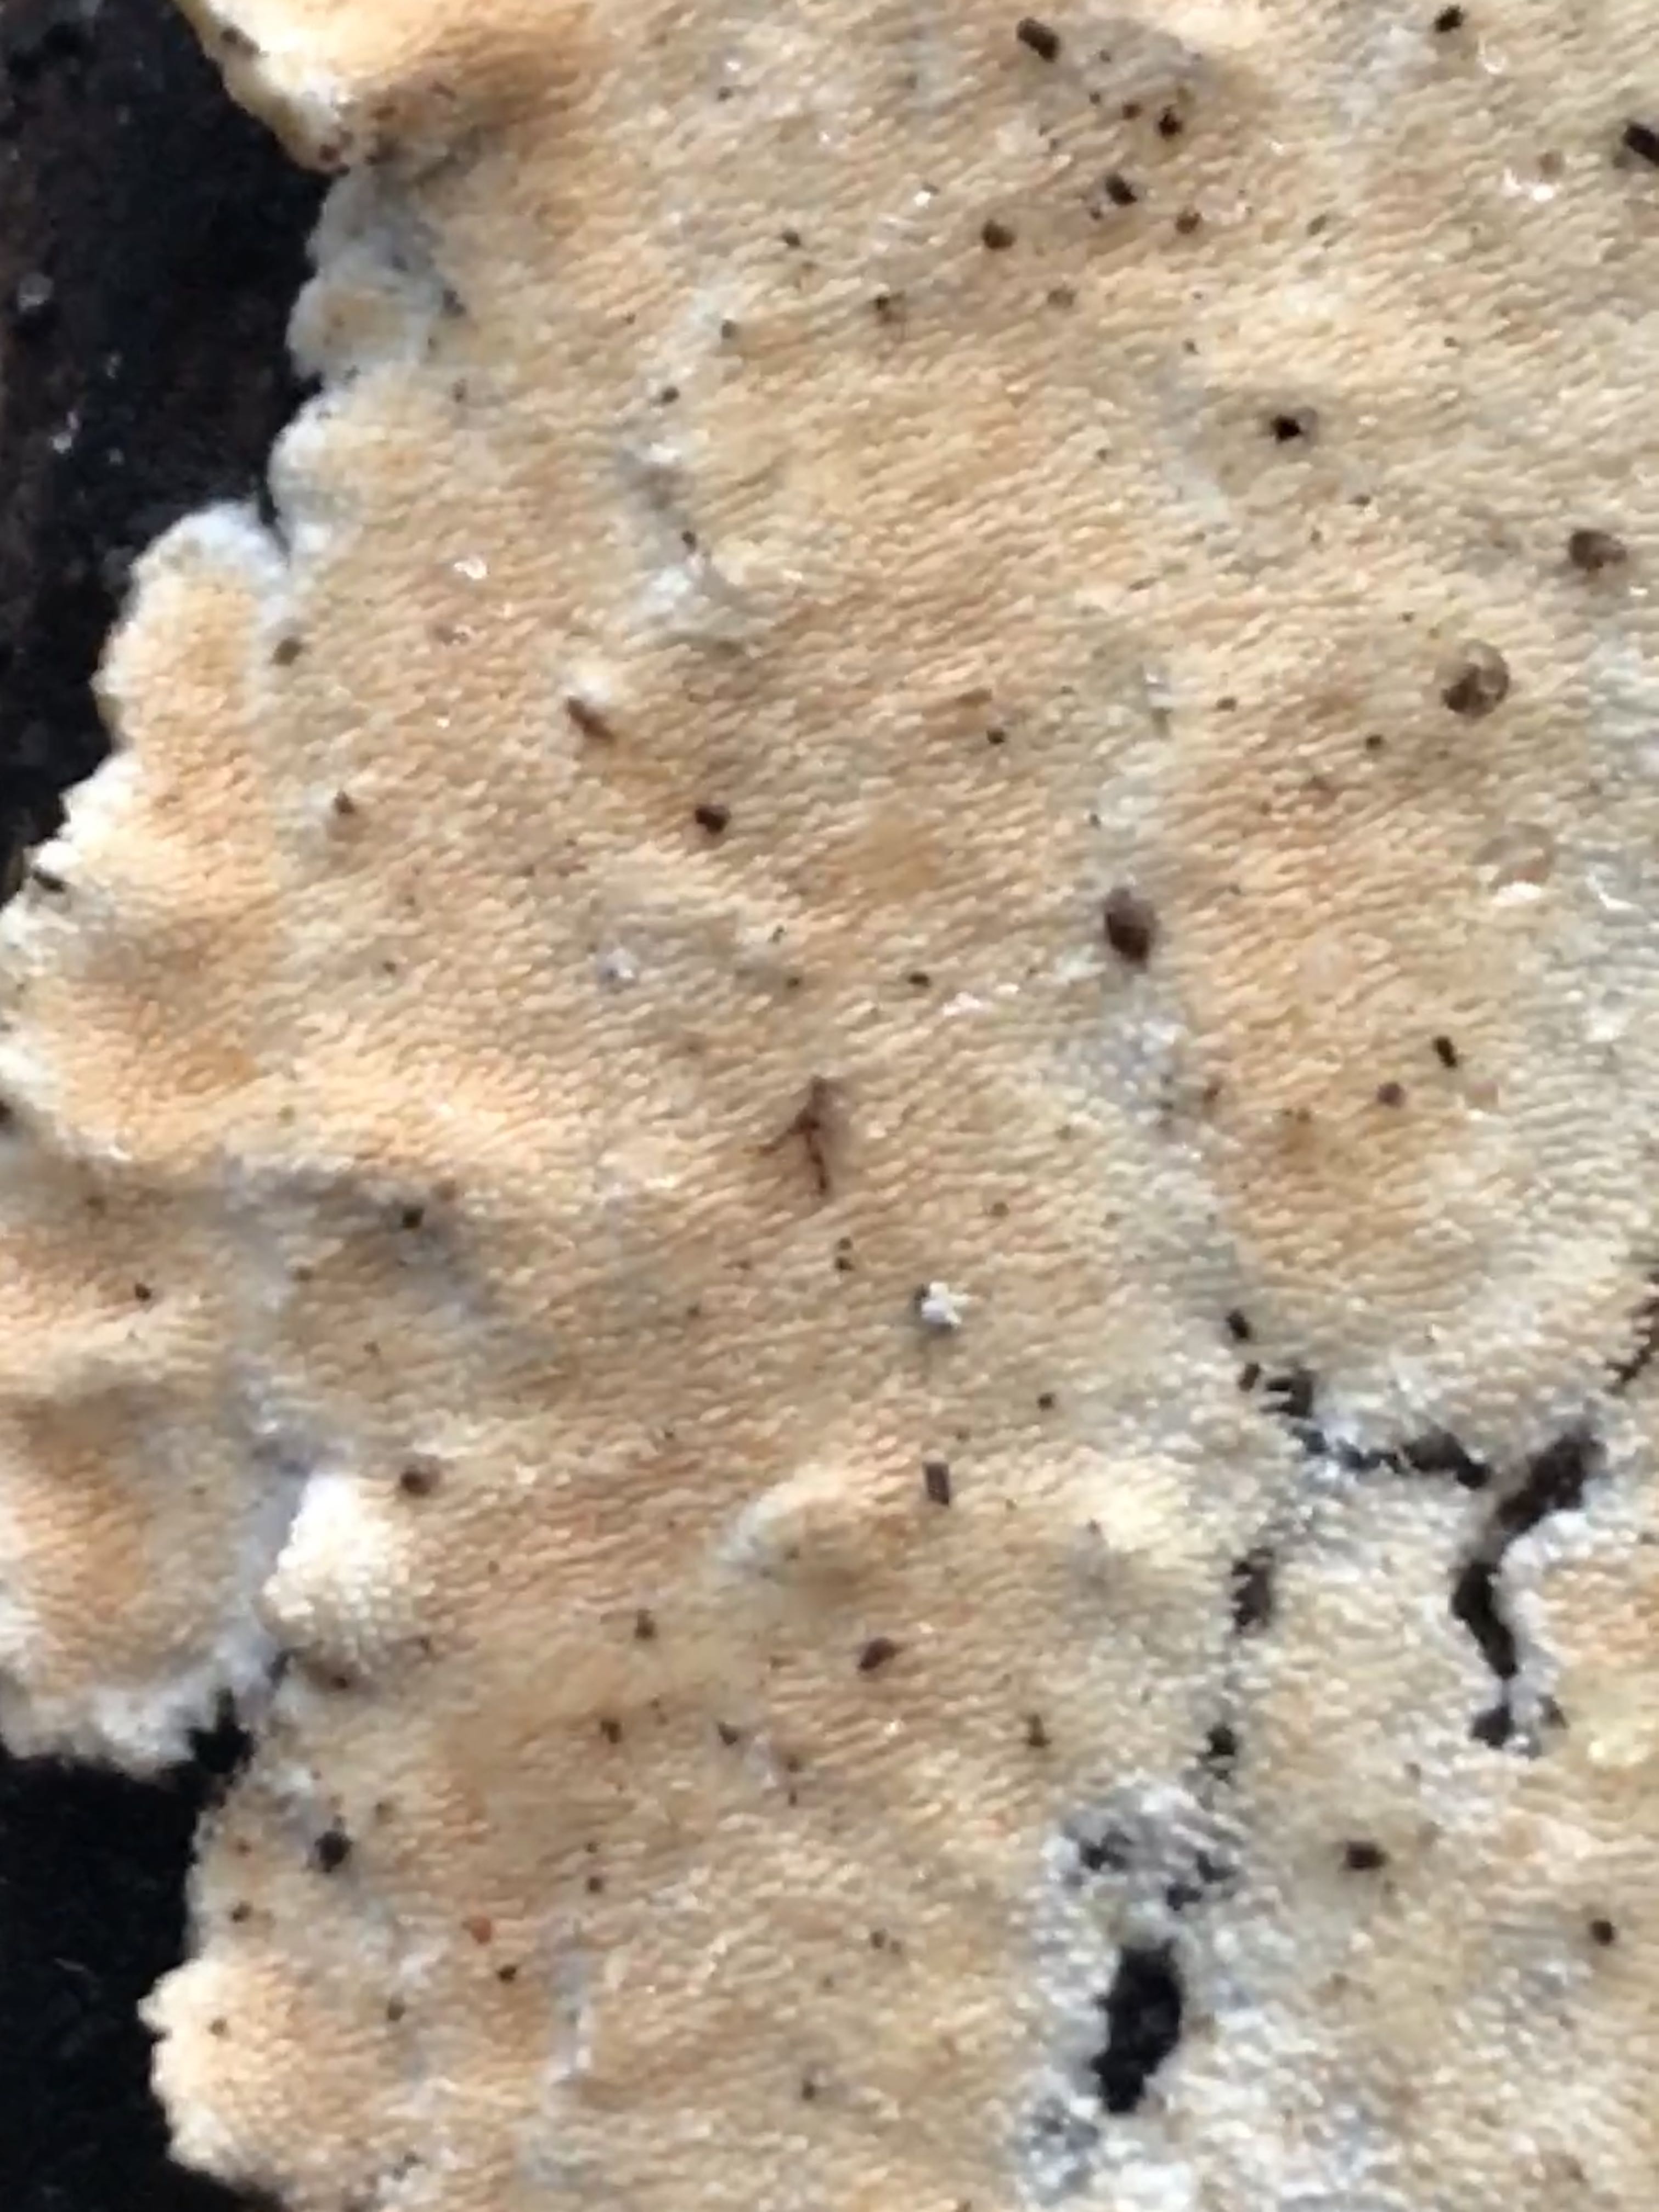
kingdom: Fungi
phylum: Basidiomycota
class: Agaricomycetes
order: Polyporales
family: Steccherinaceae
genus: Steccherinum
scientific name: Steccherinum ochraceum
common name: almindelig skønpig
